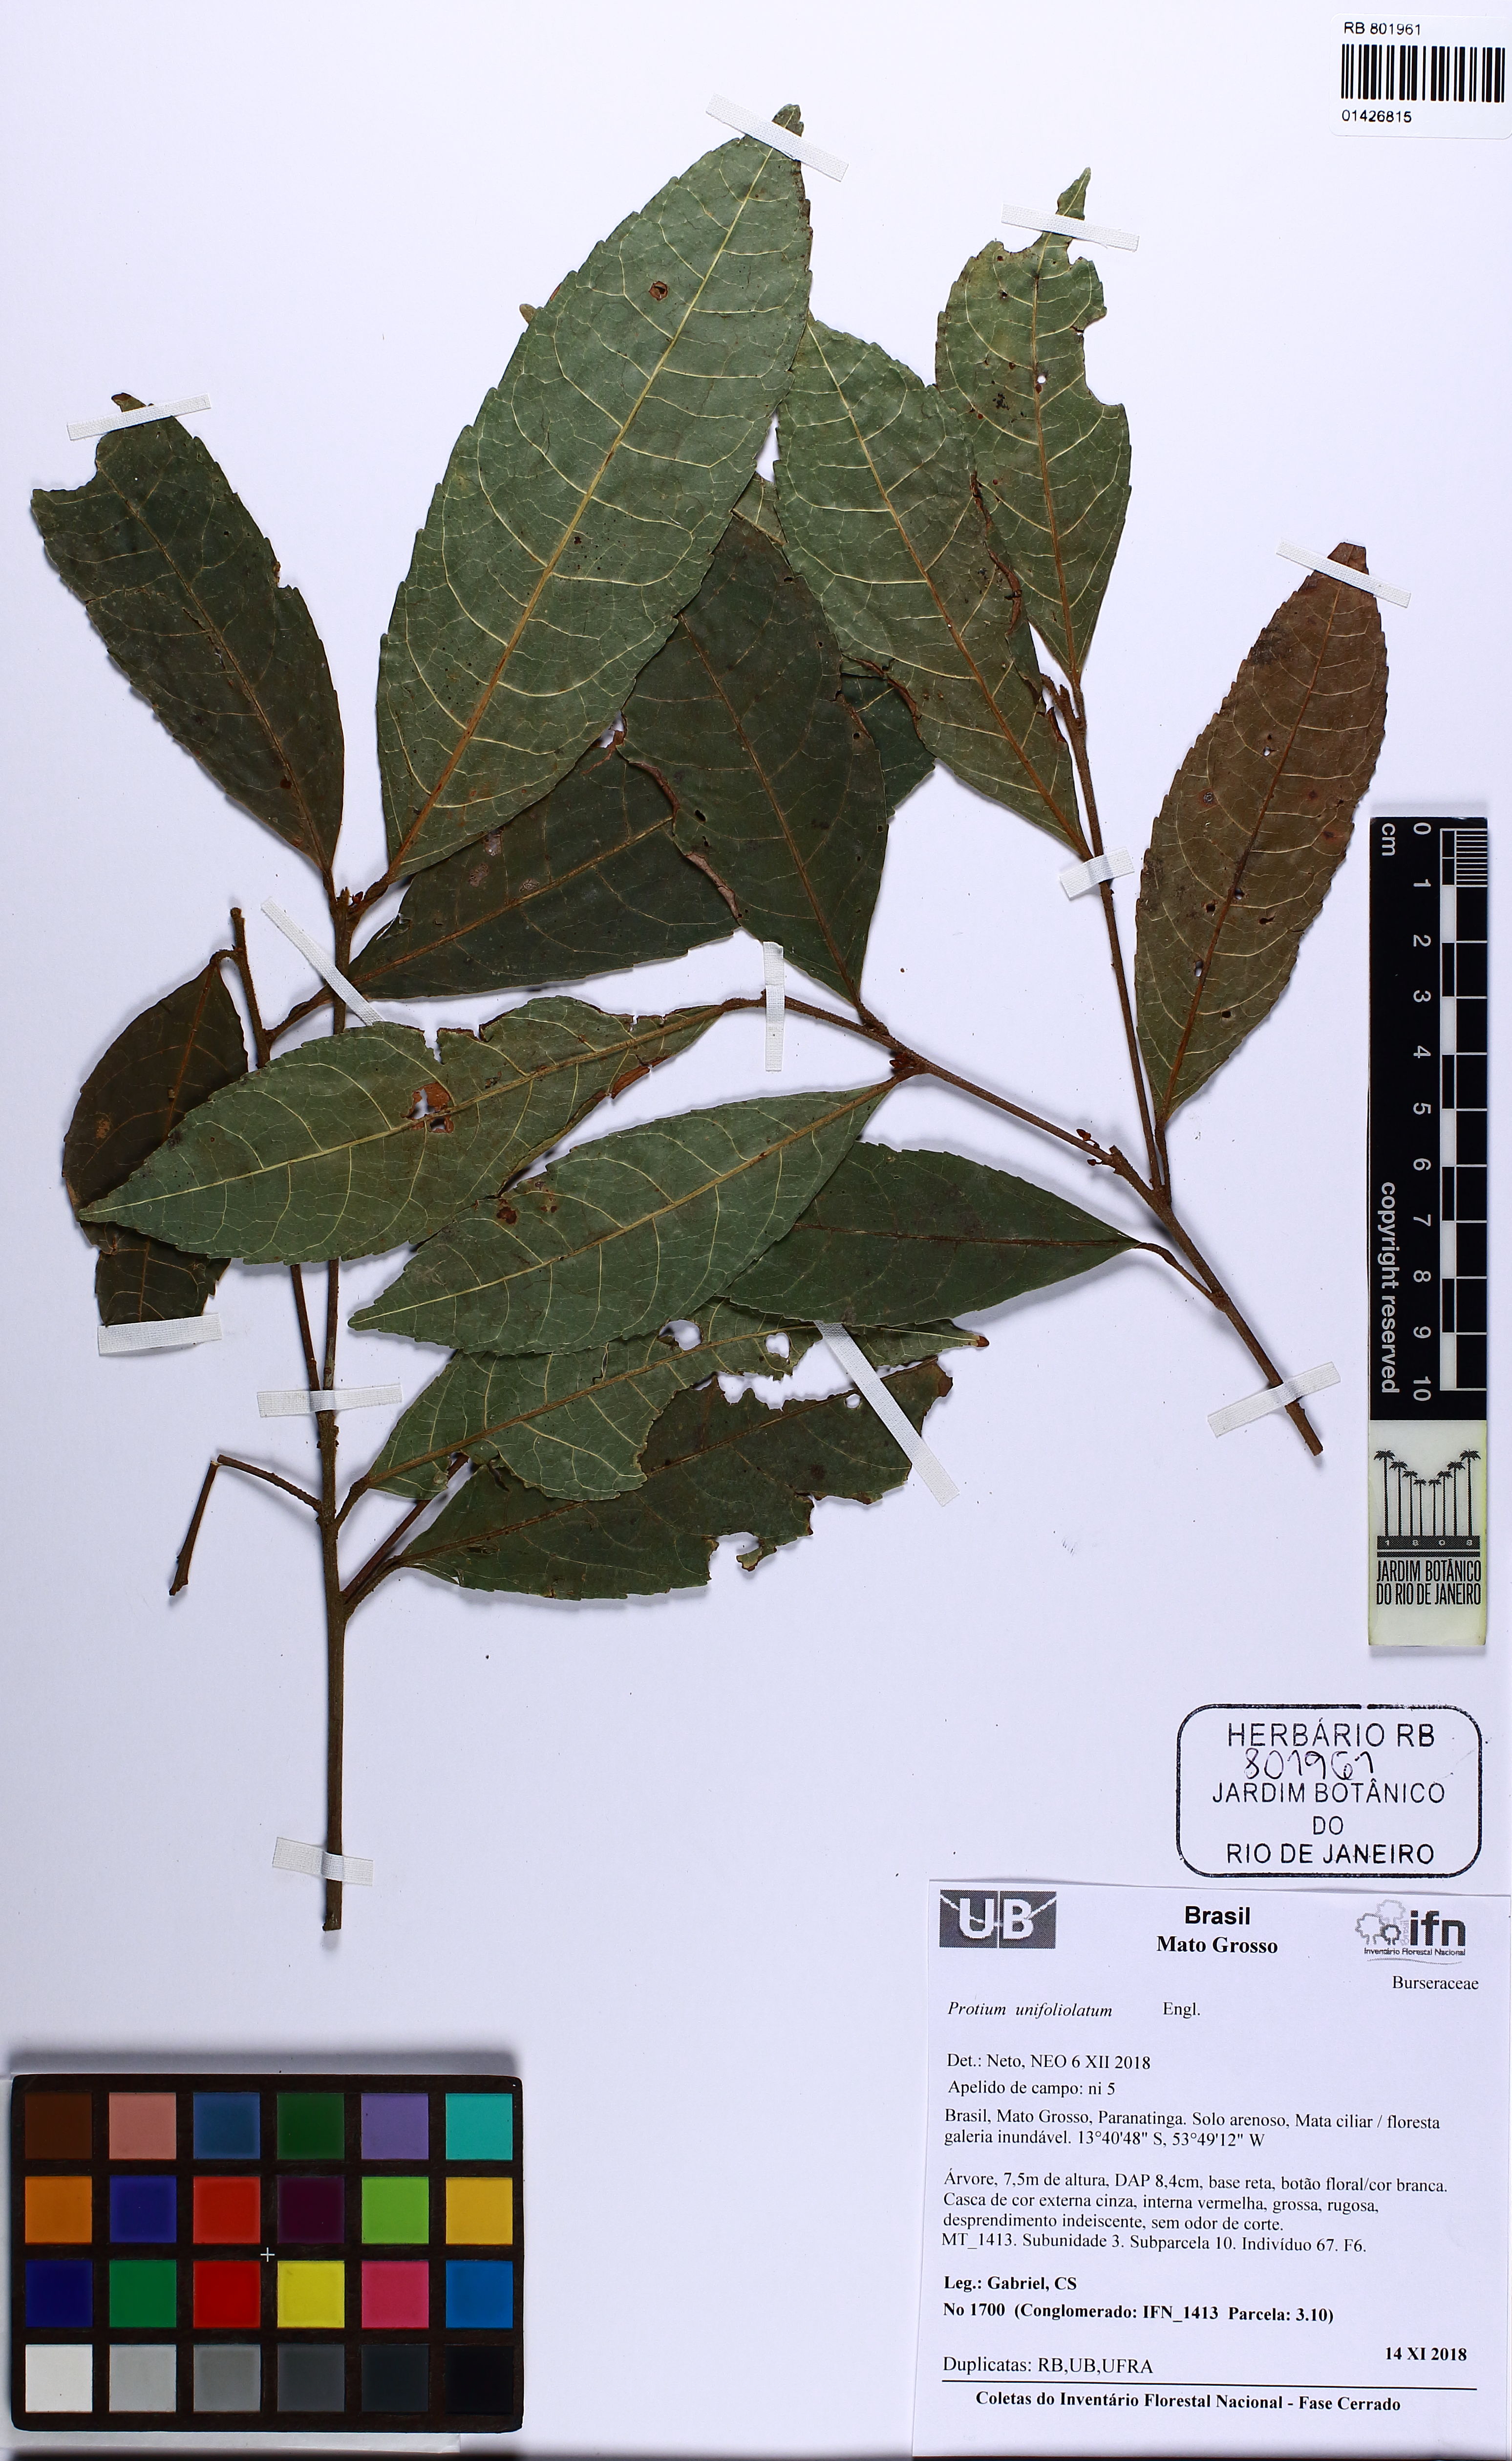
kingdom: Plantae
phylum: Tracheophyta
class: Magnoliopsida
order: Sapindales
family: Burseraceae
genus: Protium
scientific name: Protium unifoliolatum
